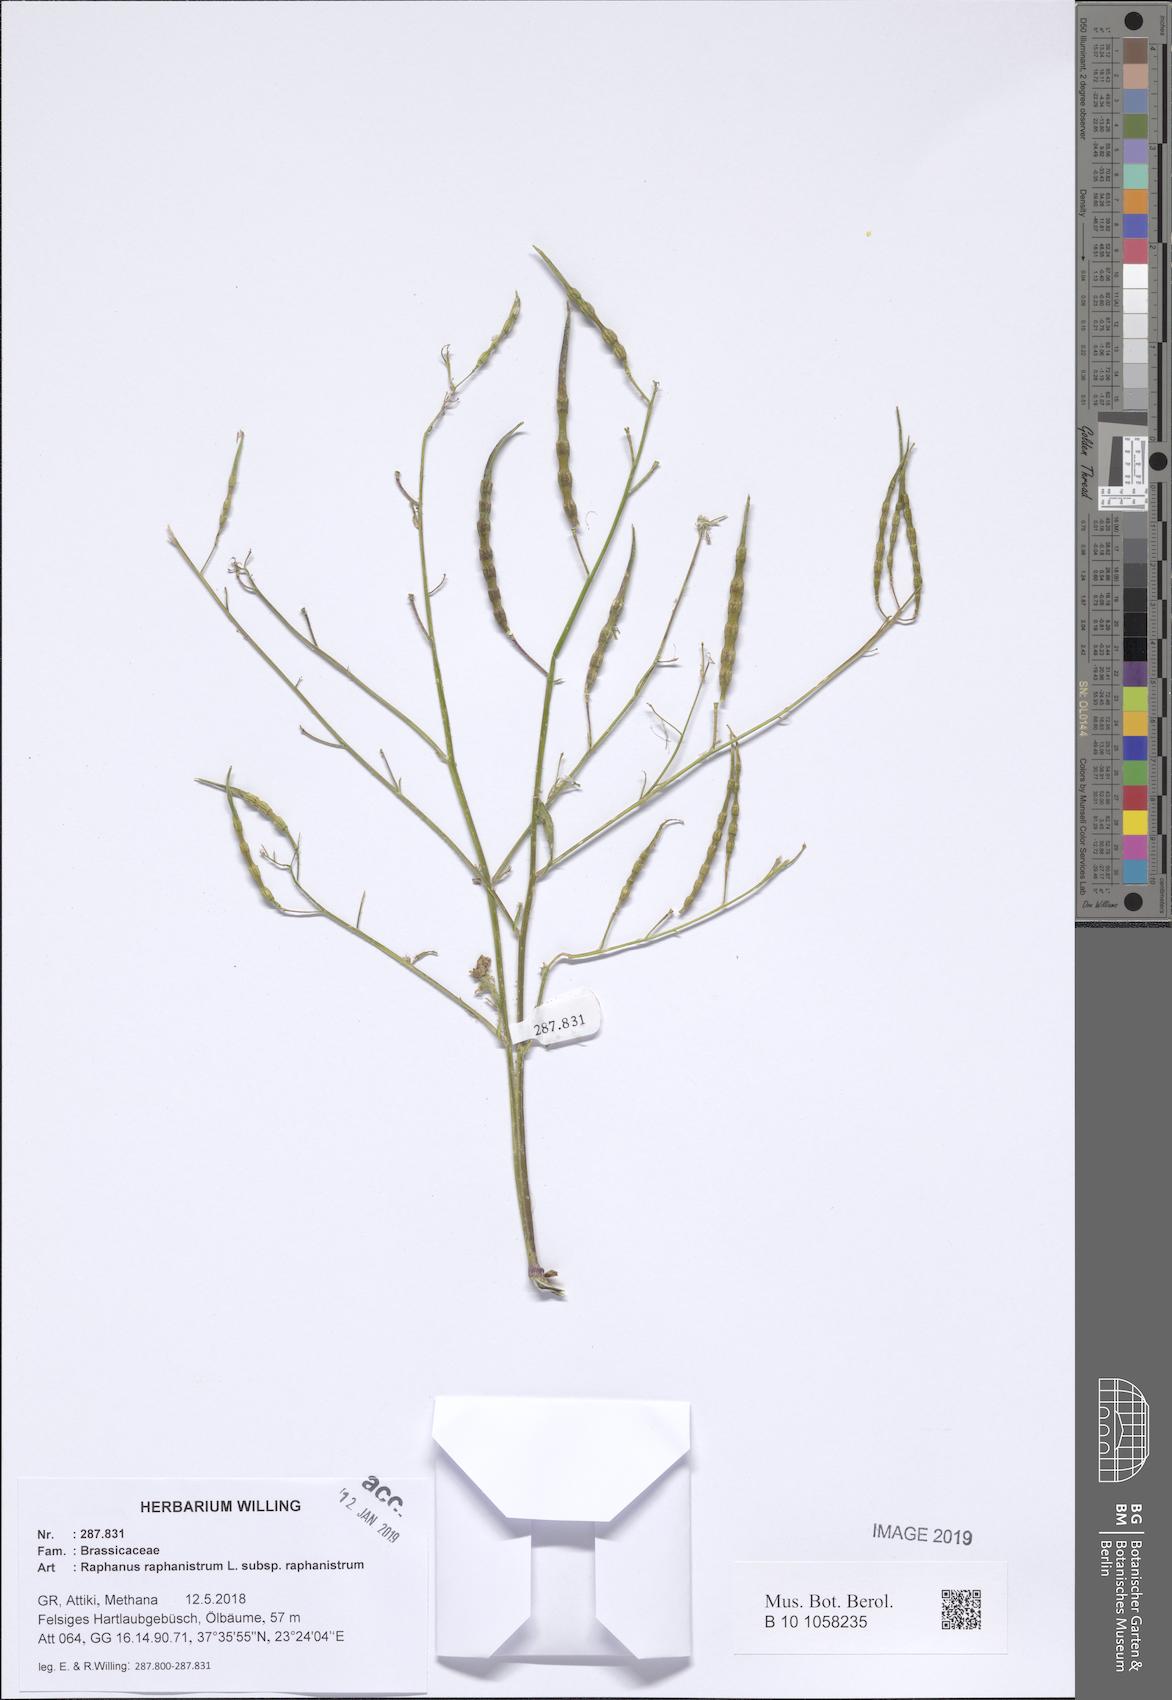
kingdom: Plantae
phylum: Tracheophyta
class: Magnoliopsida
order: Brassicales
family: Brassicaceae
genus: Raphanus
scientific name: Raphanus raphanistrum
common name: Wild radish
